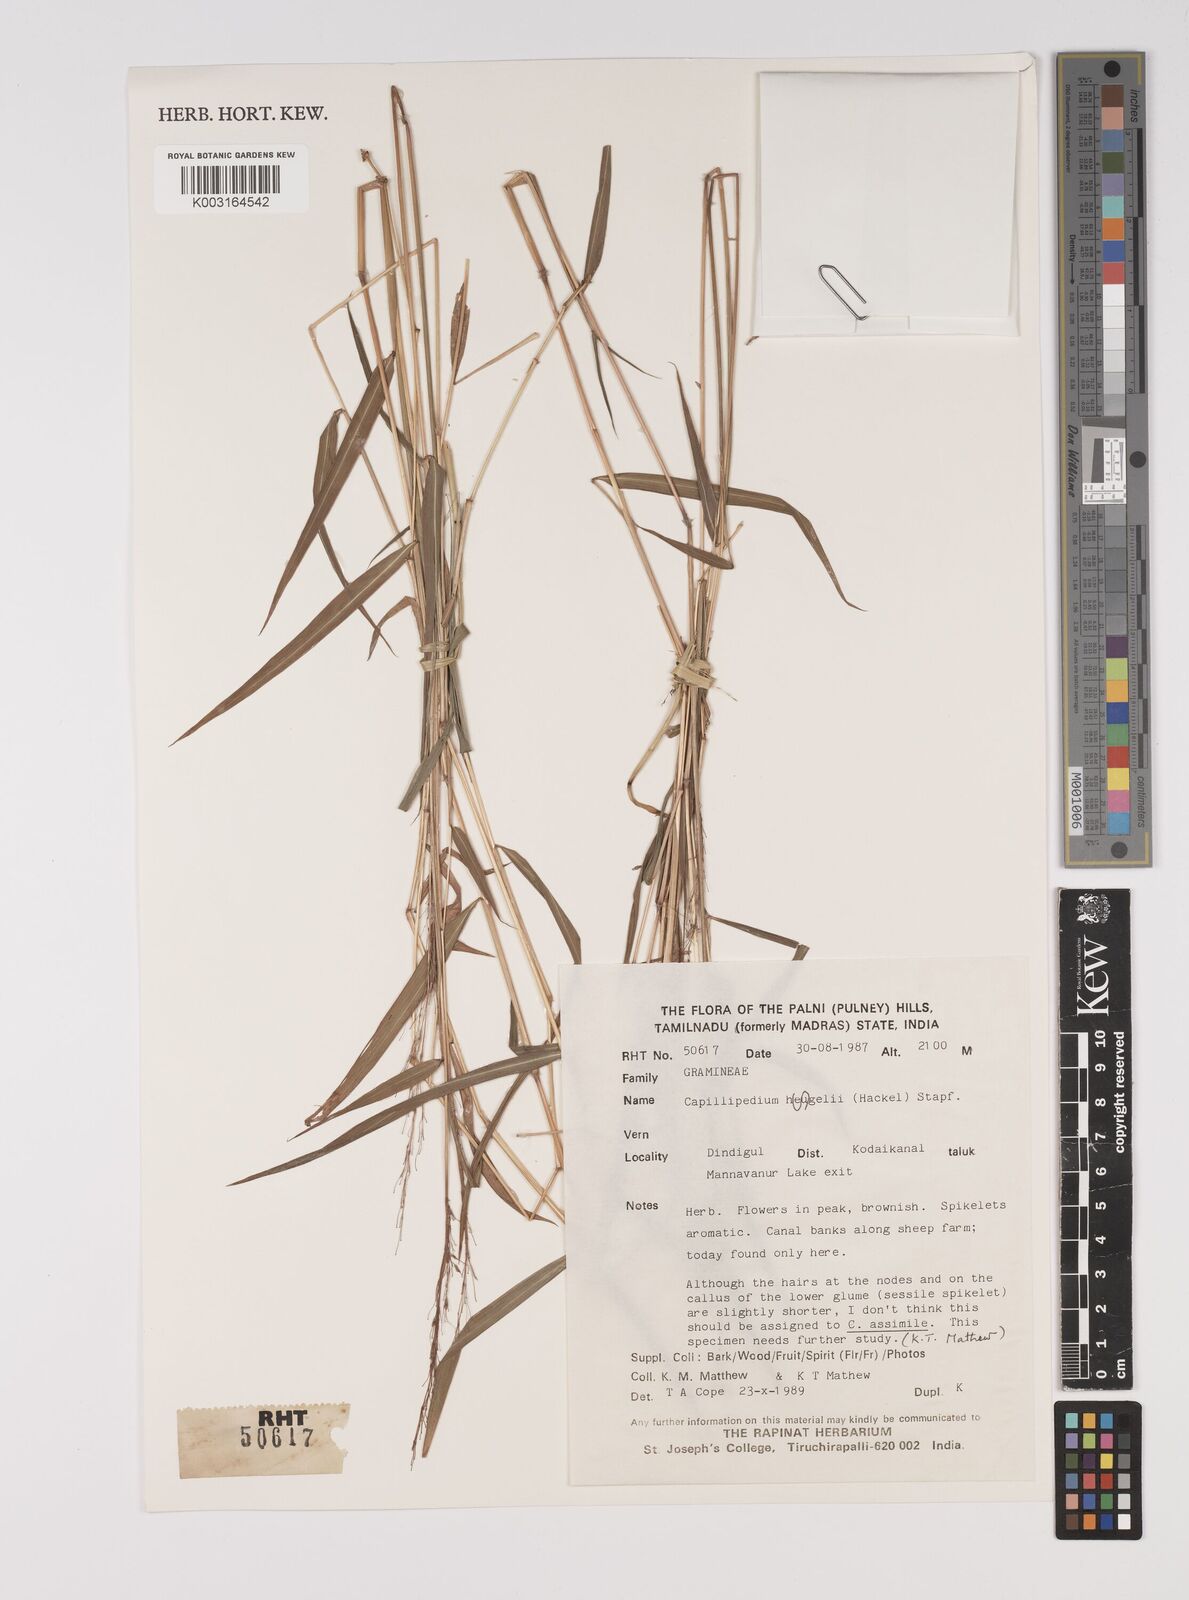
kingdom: Plantae
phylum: Tracheophyta
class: Liliopsida
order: Poales
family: Poaceae
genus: Capillipedium
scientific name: Capillipedium huegelii
